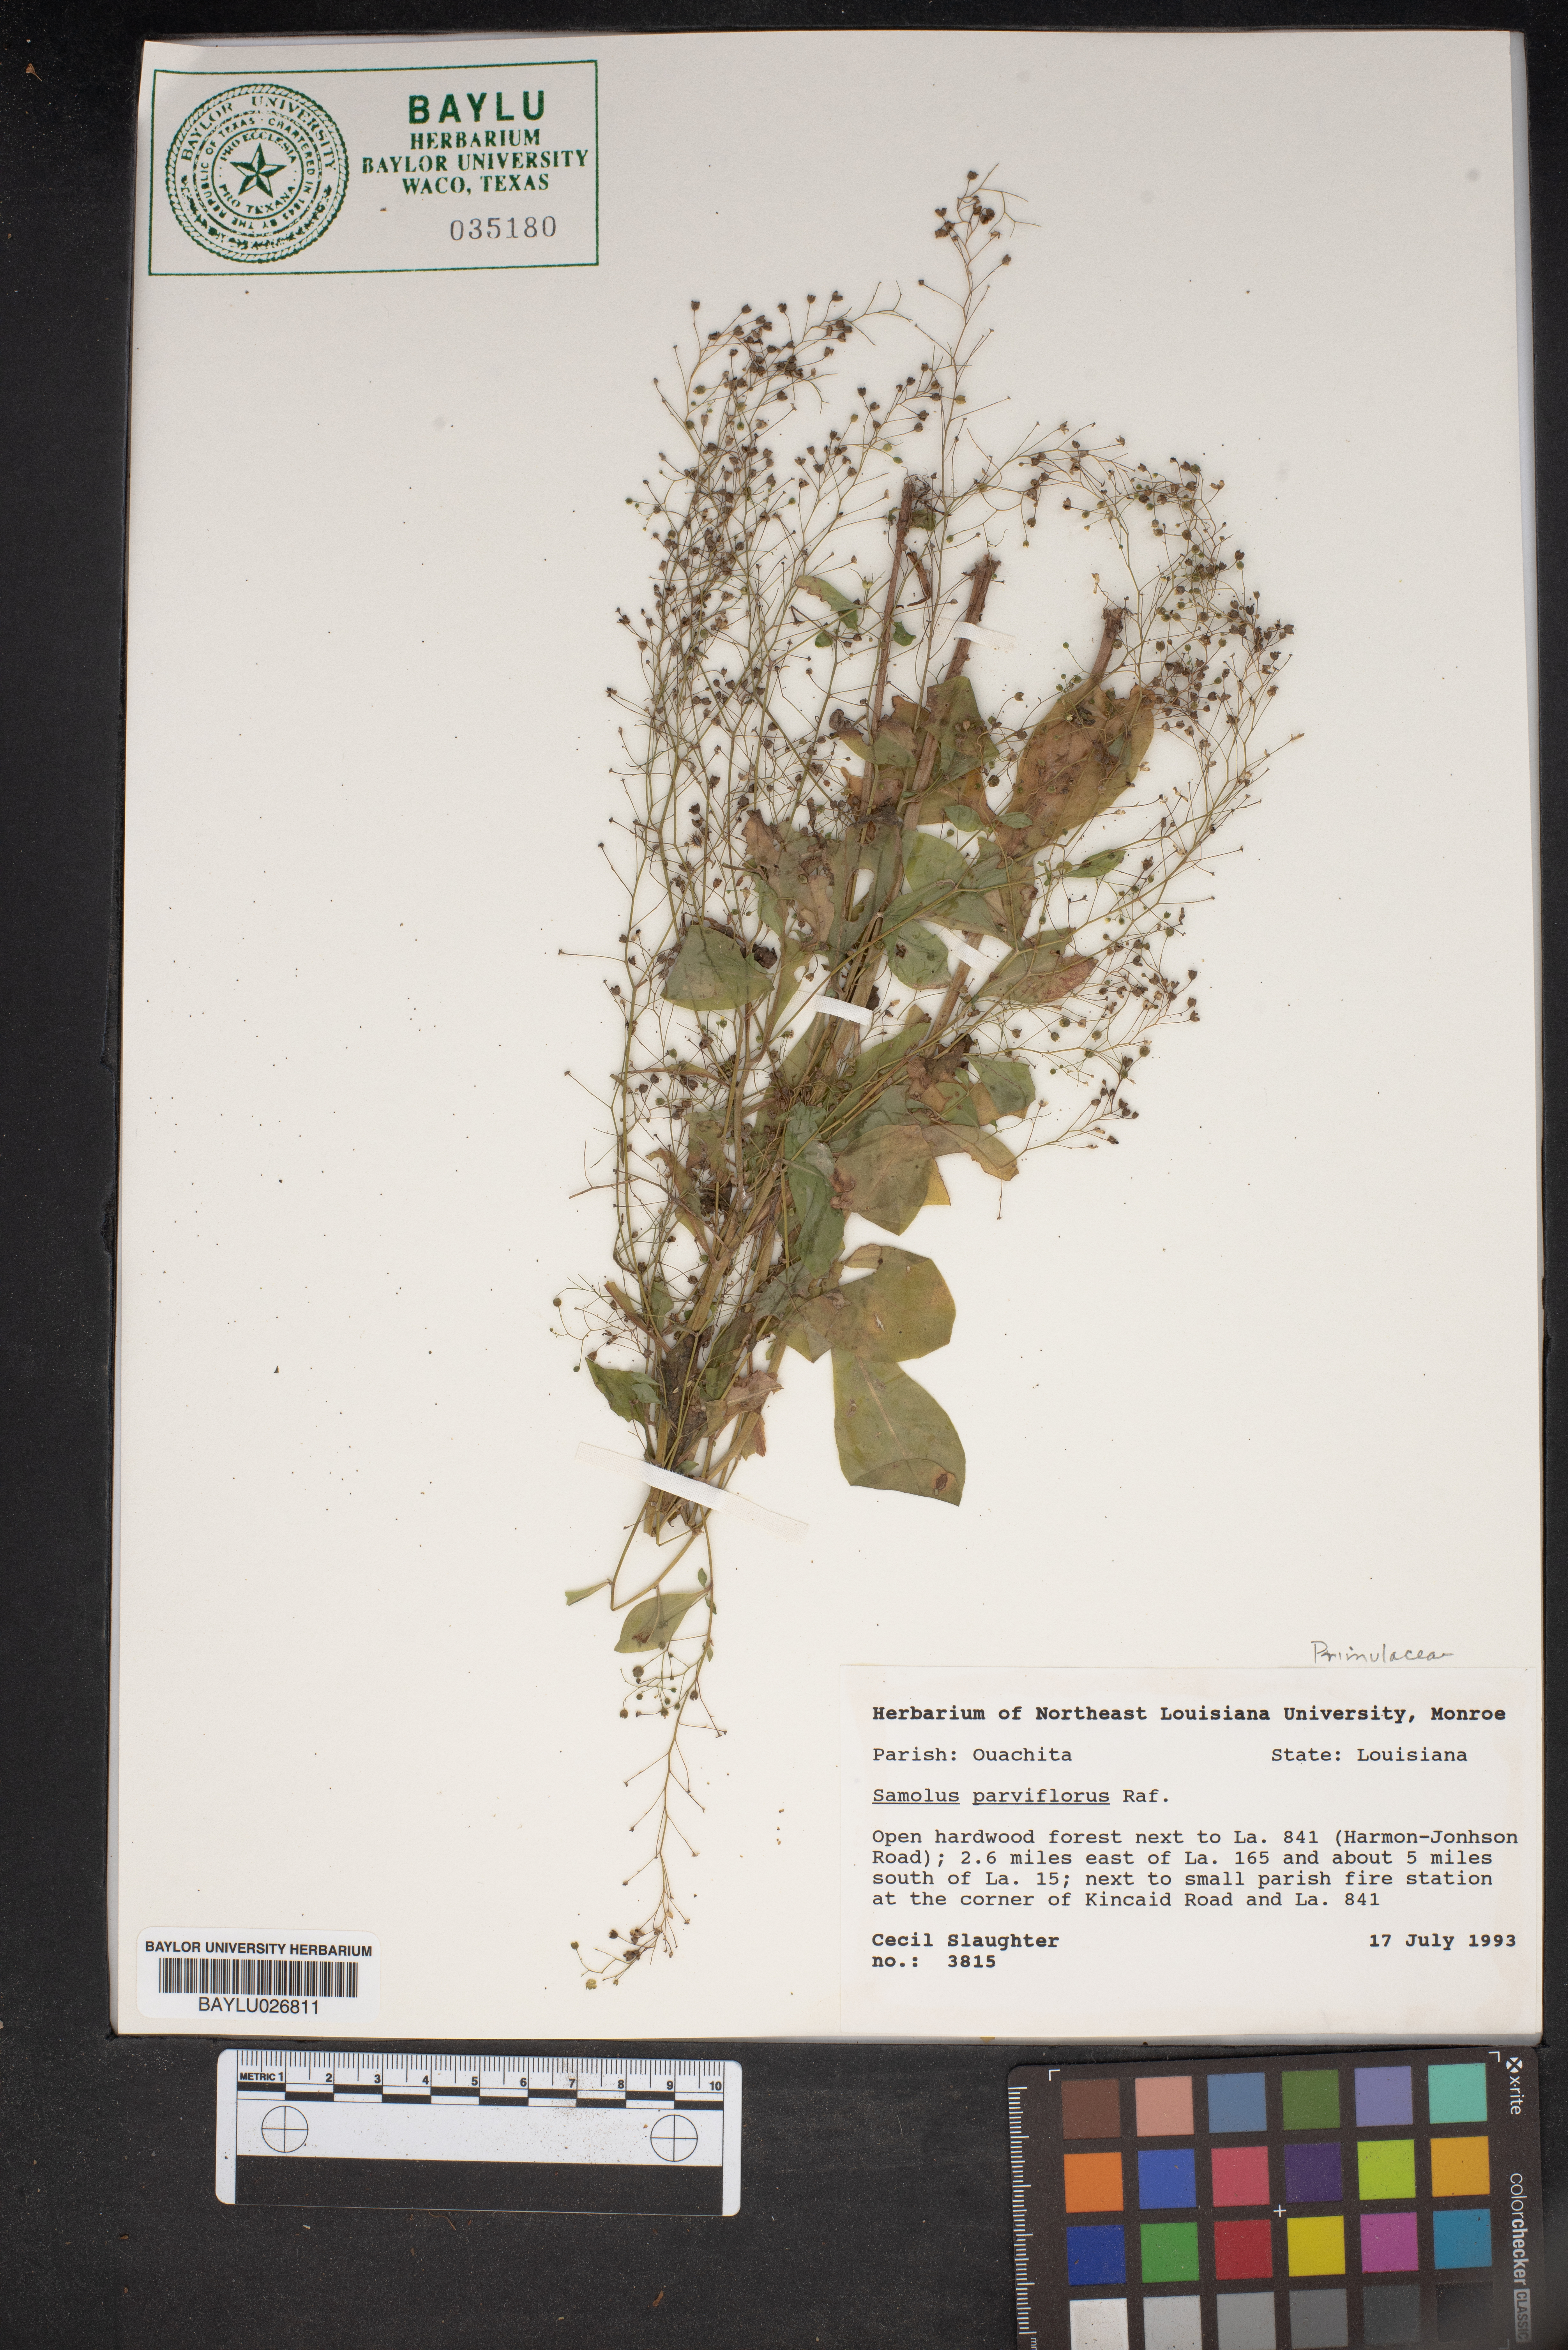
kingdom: Plantae
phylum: Tracheophyta
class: Magnoliopsida
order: Ericales
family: Primulaceae
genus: Samolus
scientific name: Samolus parviflorus
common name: False water pimpernel
